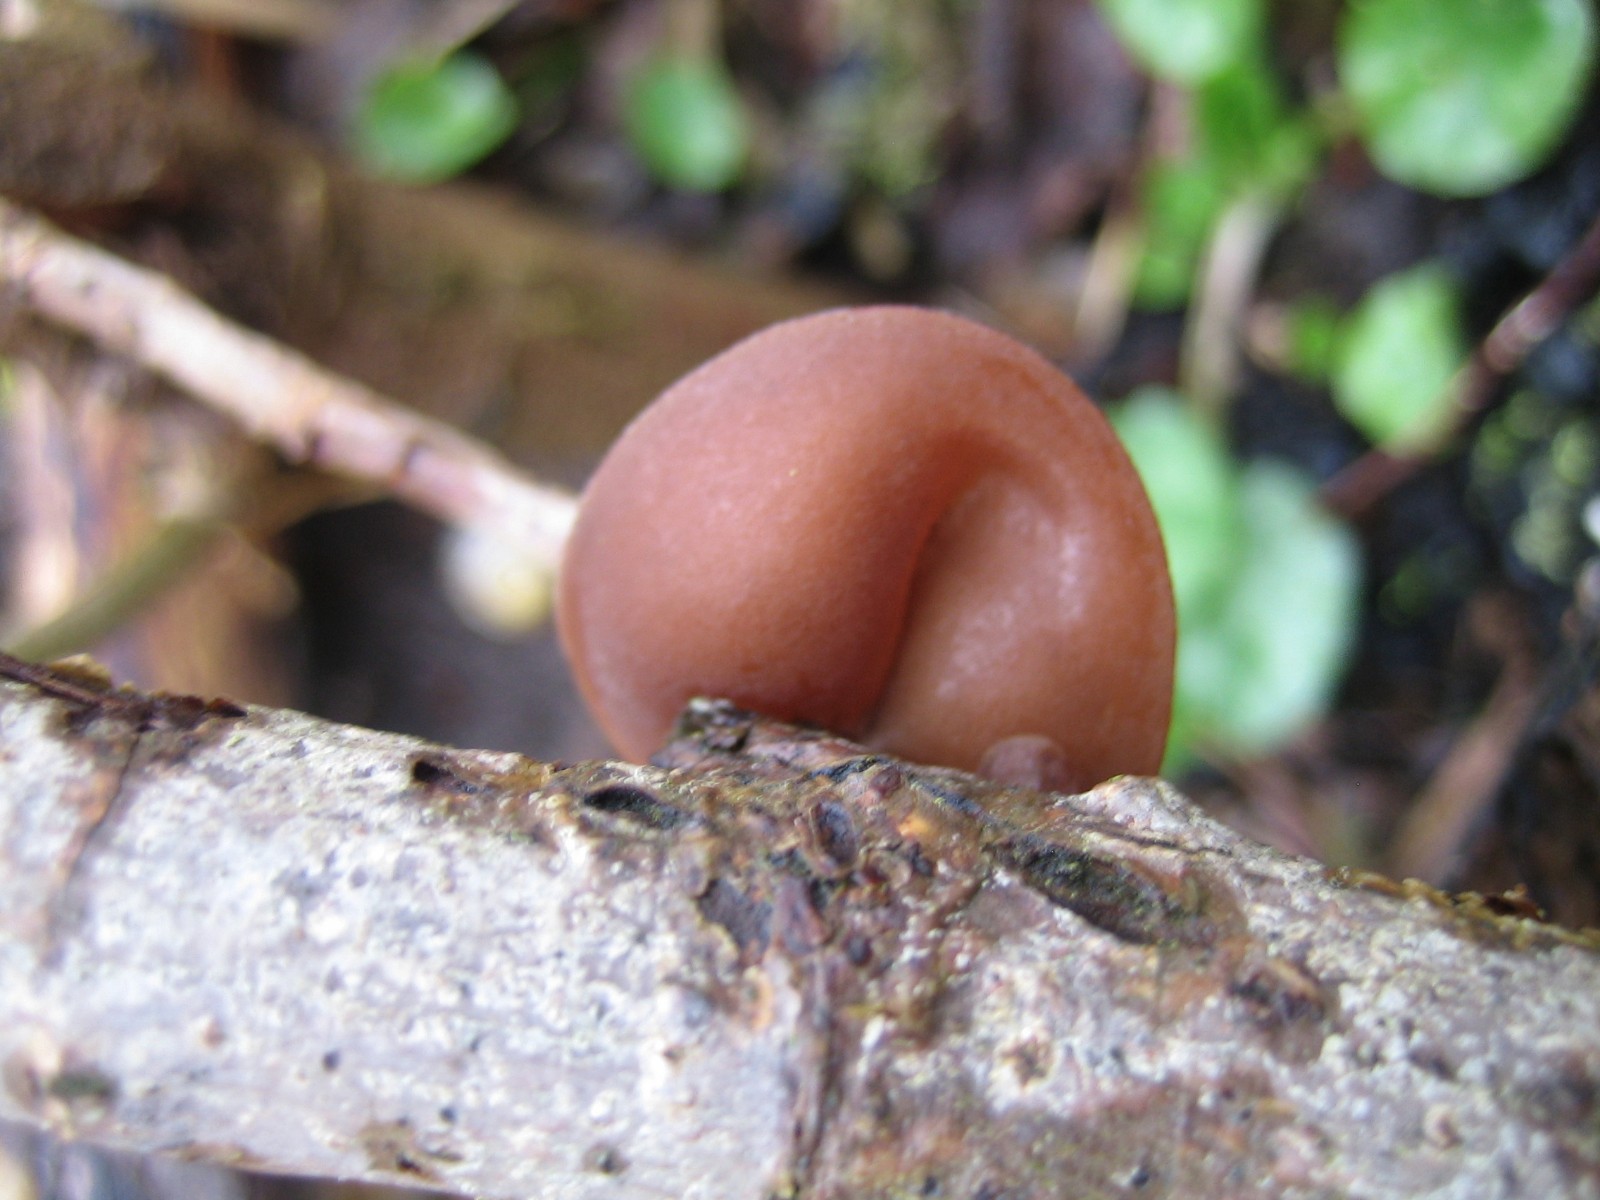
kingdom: Fungi
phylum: Basidiomycota
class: Agaricomycetes
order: Auriculariales
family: Auriculariaceae
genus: Auricularia
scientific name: Auricularia auricula-judae
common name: almindelig judasøre
